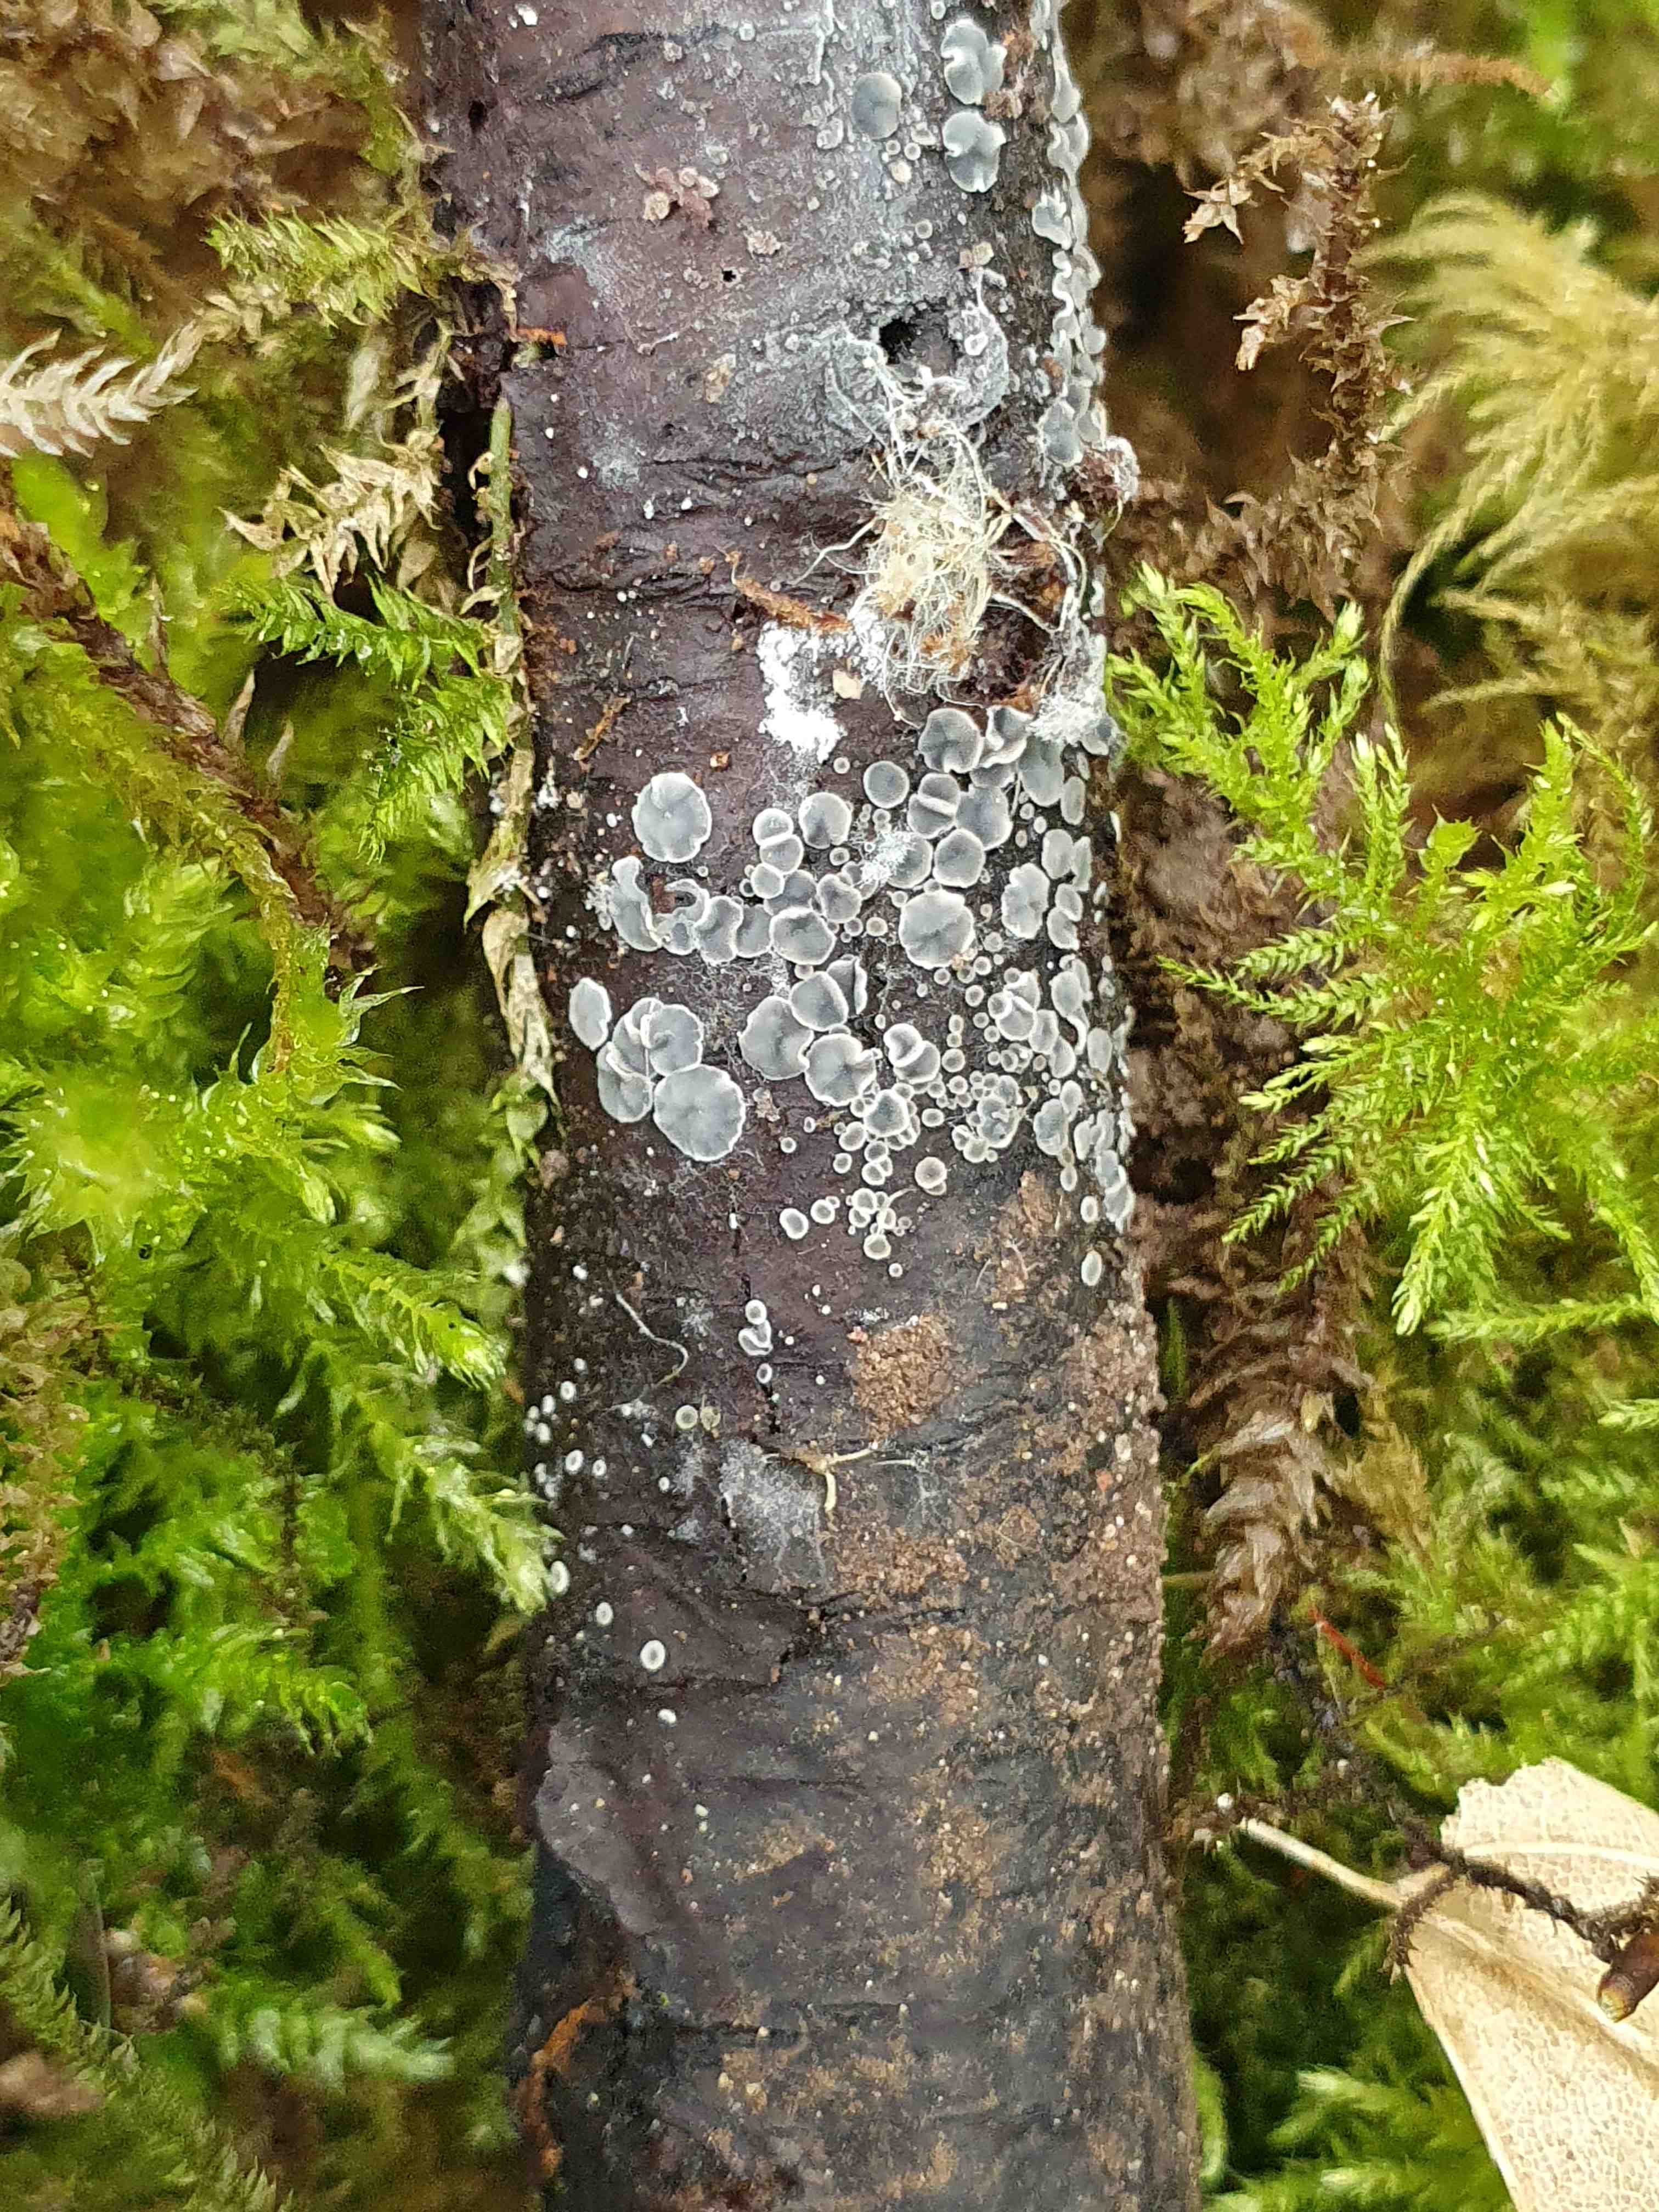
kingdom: Fungi
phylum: Ascomycota
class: Leotiomycetes
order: Helotiales
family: Mollisiaceae
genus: Mollisia
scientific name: Mollisia
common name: gråskive
